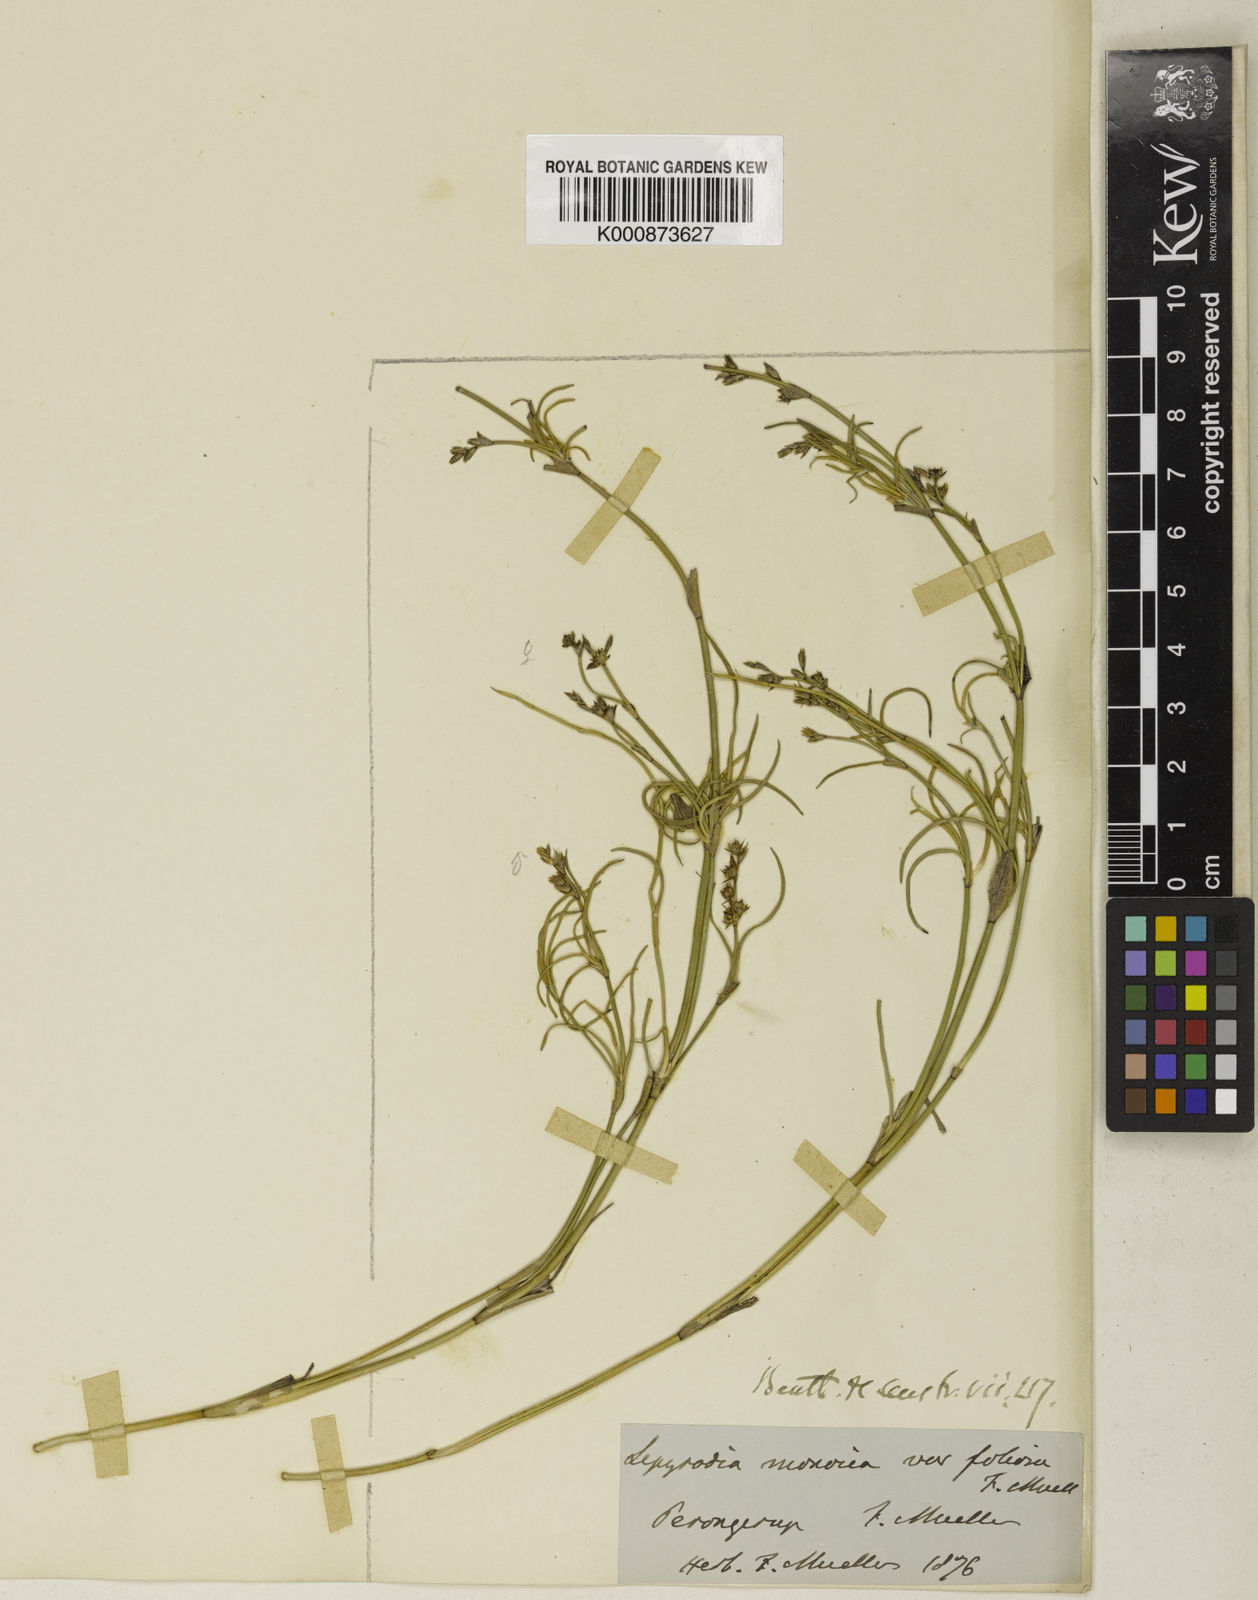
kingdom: Plantae
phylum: Tracheophyta
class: Liliopsida
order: Poales
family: Restionaceae
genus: Lepyrodia
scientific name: Lepyrodia monoica
